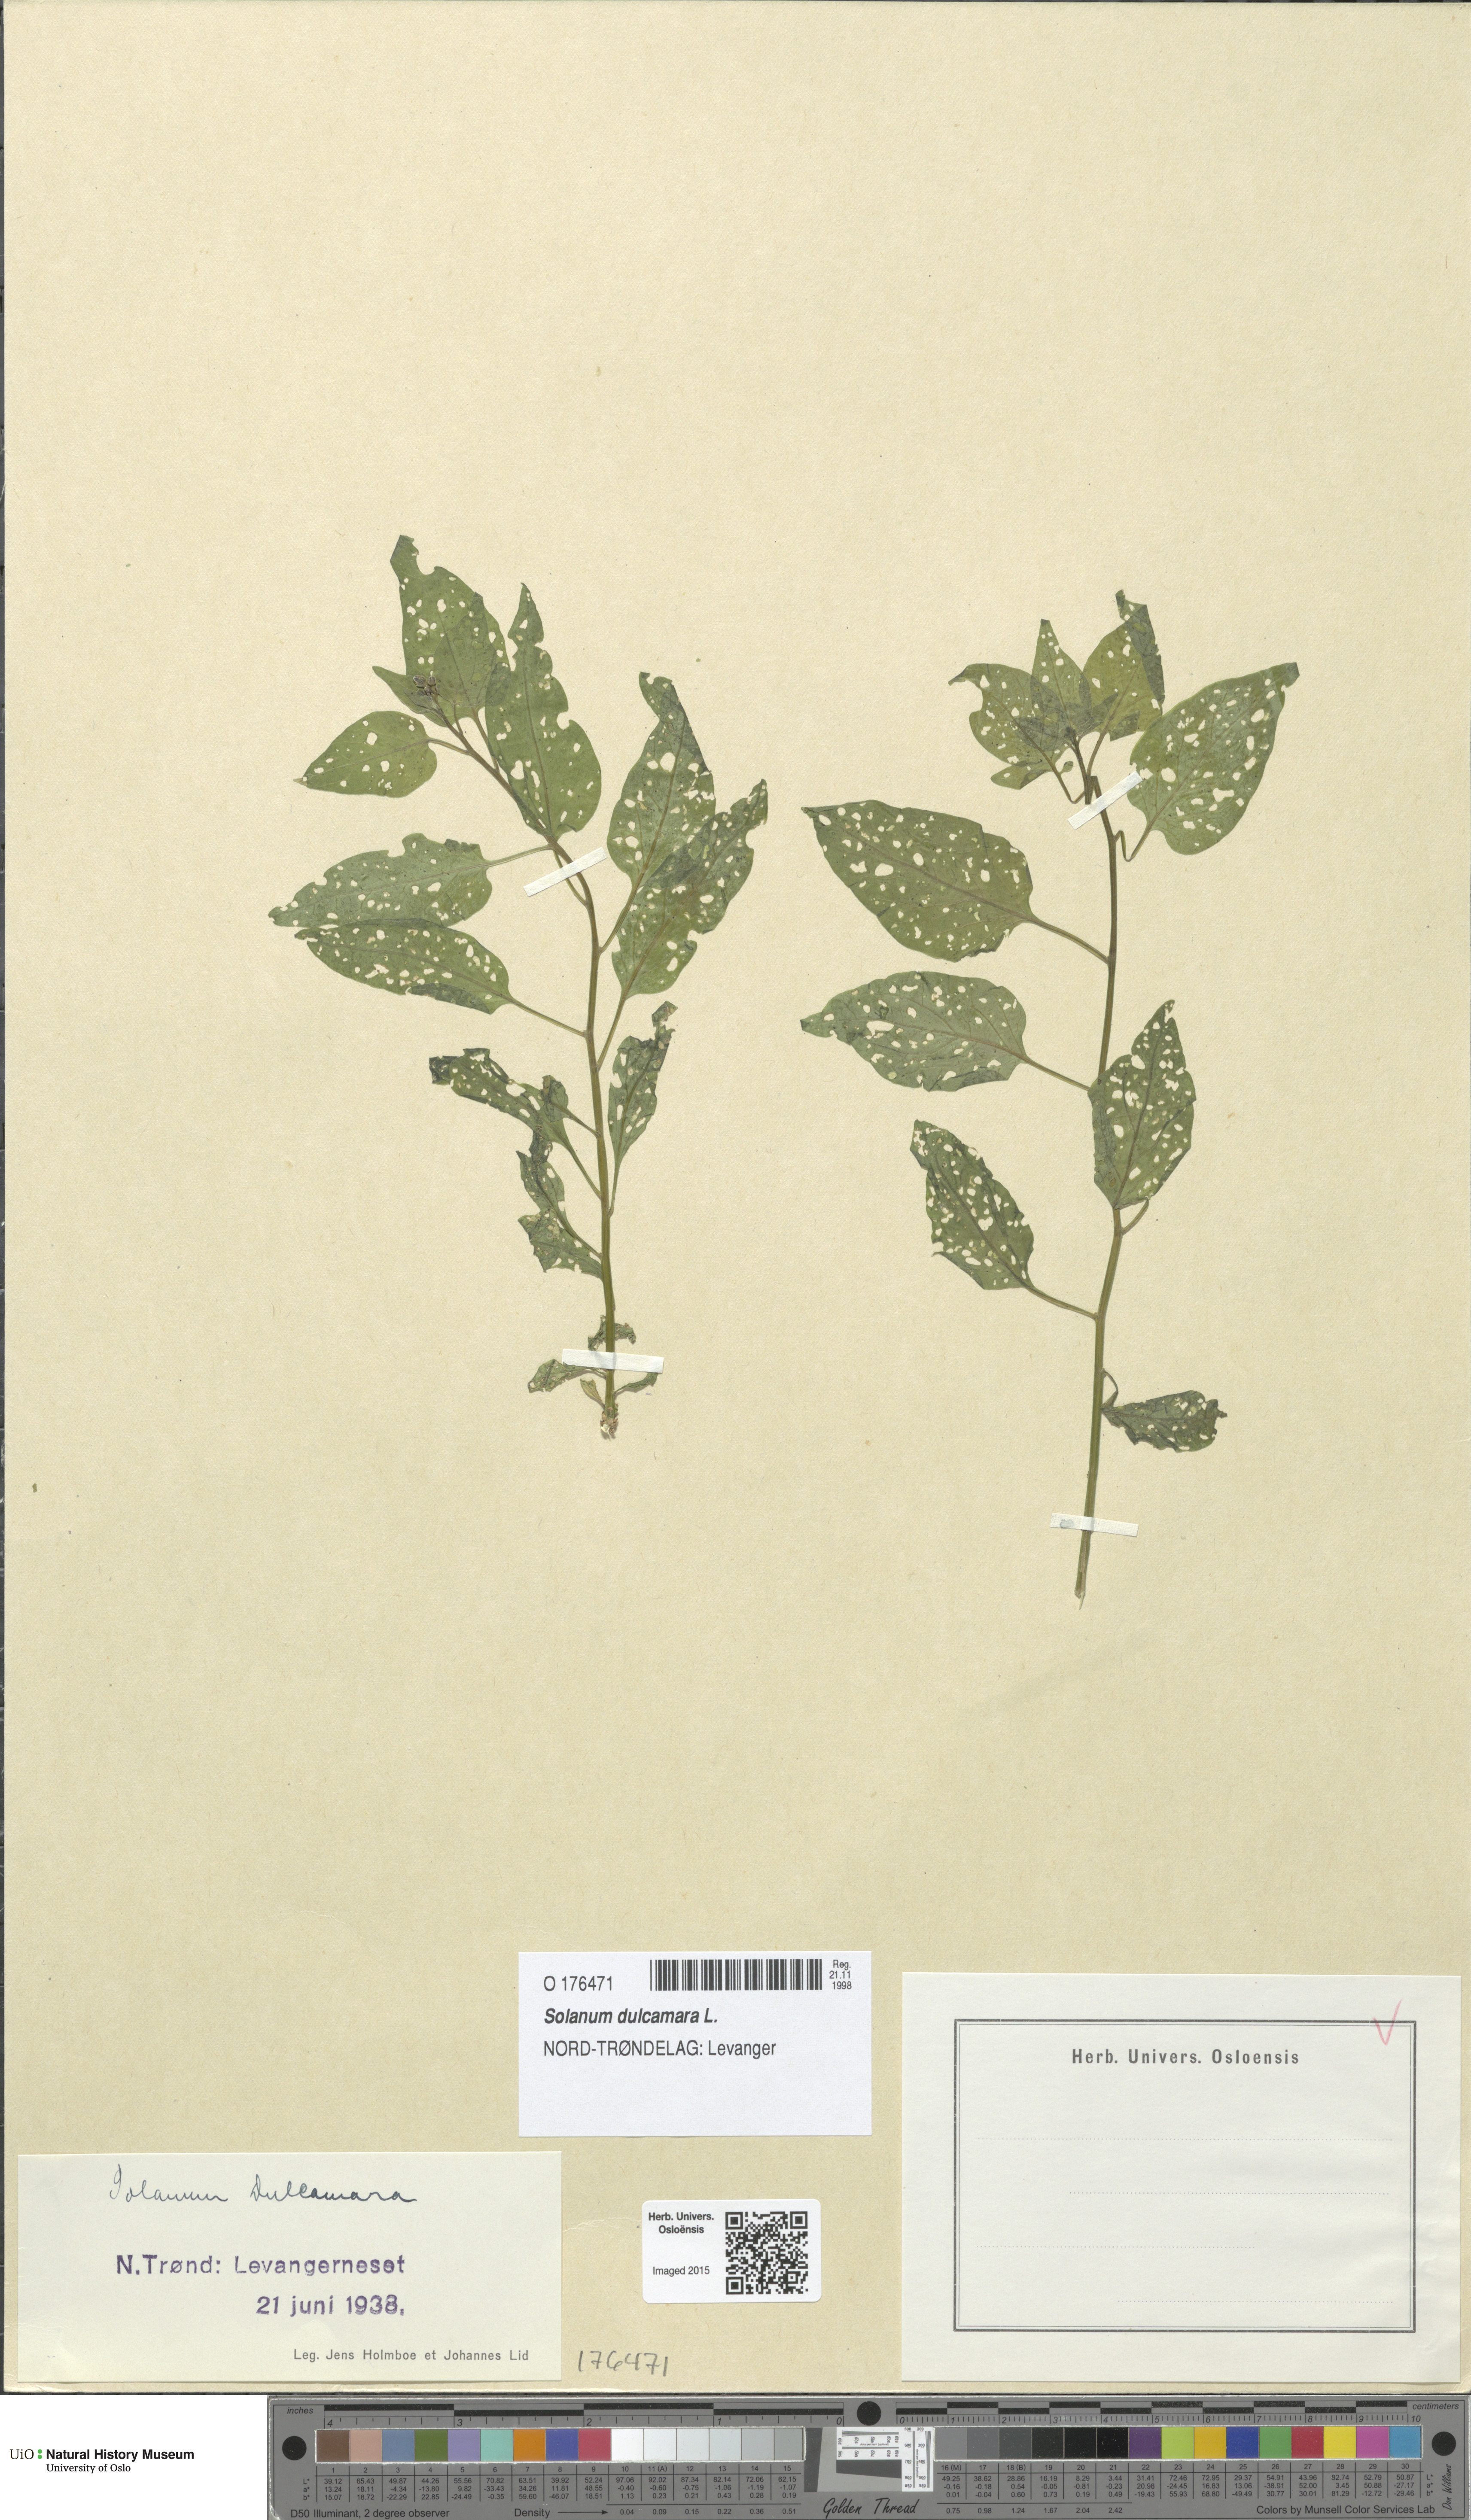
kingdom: Plantae
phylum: Tracheophyta
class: Magnoliopsida
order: Solanales
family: Solanaceae
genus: Solanum
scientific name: Solanum dulcamara
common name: Climbing nightshade
